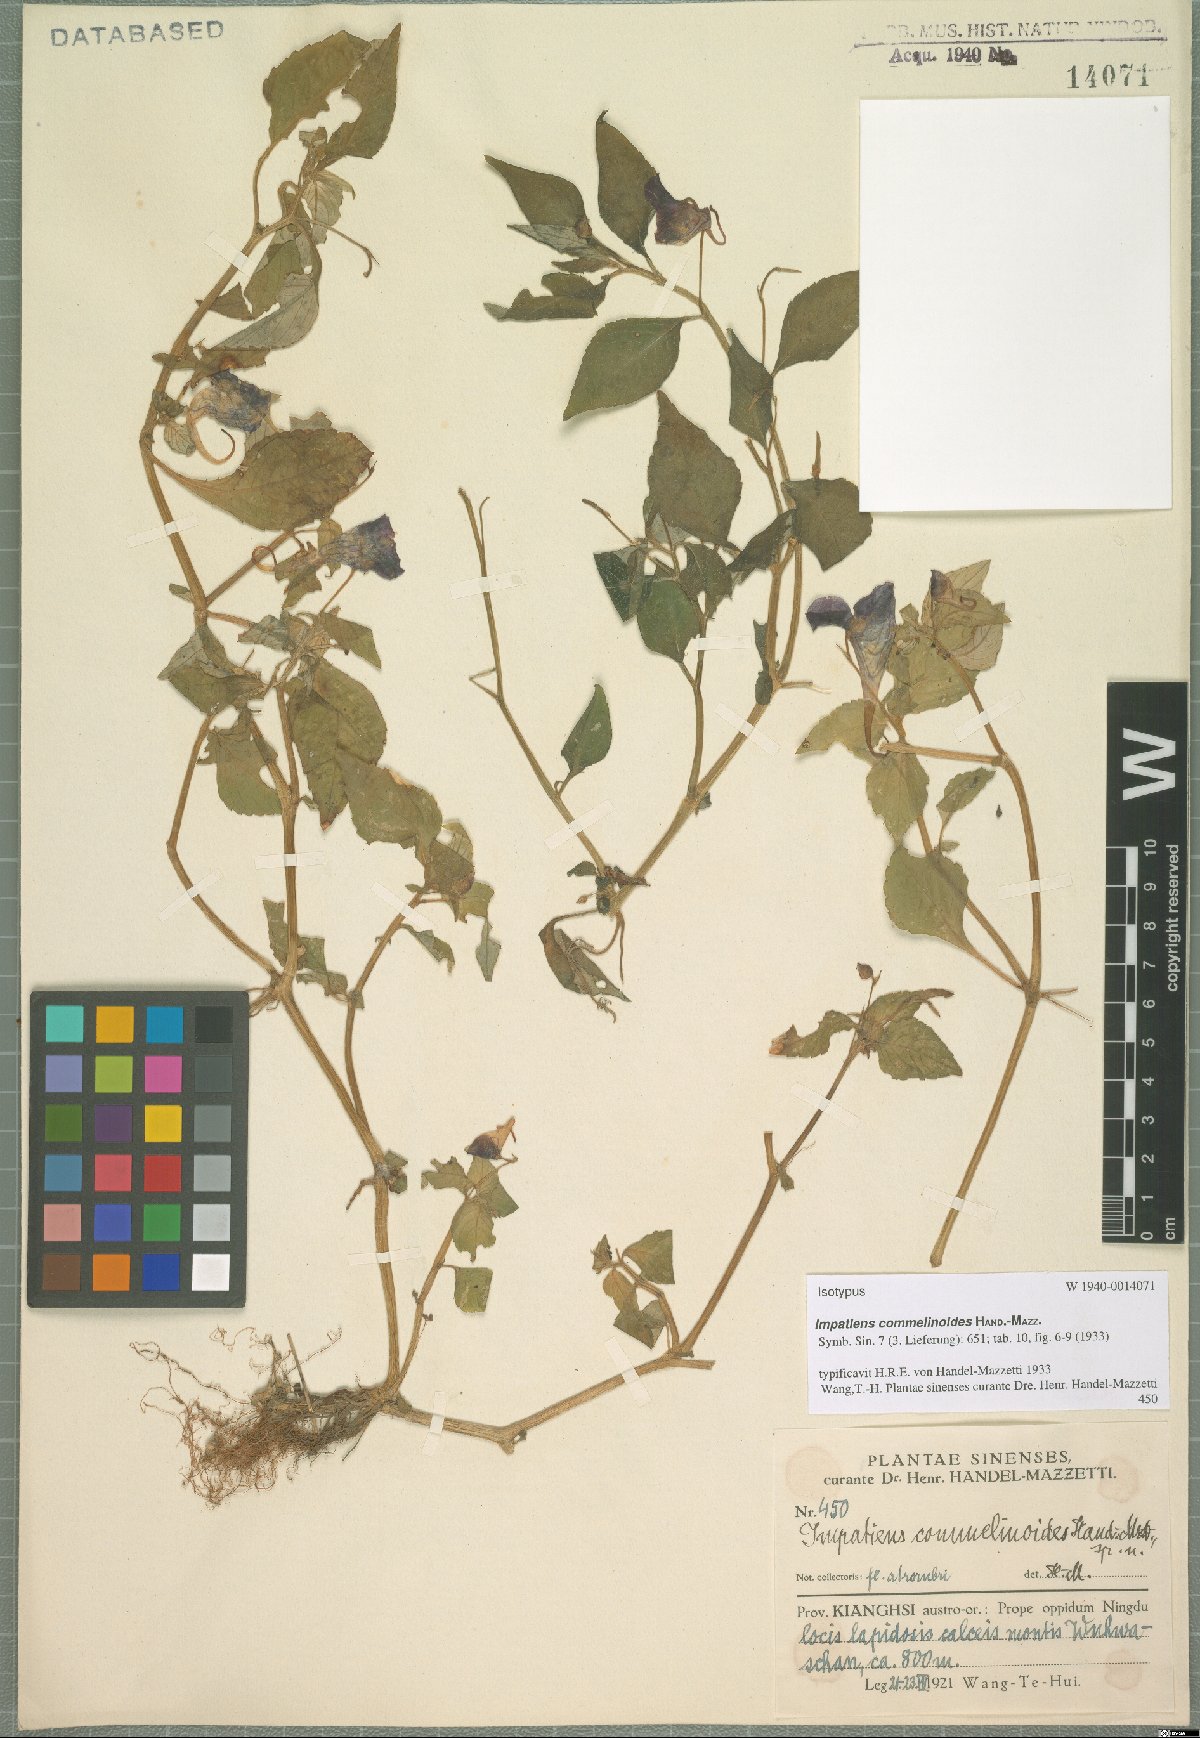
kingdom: Plantae
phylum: Tracheophyta
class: Magnoliopsida
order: Ericales
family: Balsaminaceae
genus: Impatiens
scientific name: Impatiens commelinoides
